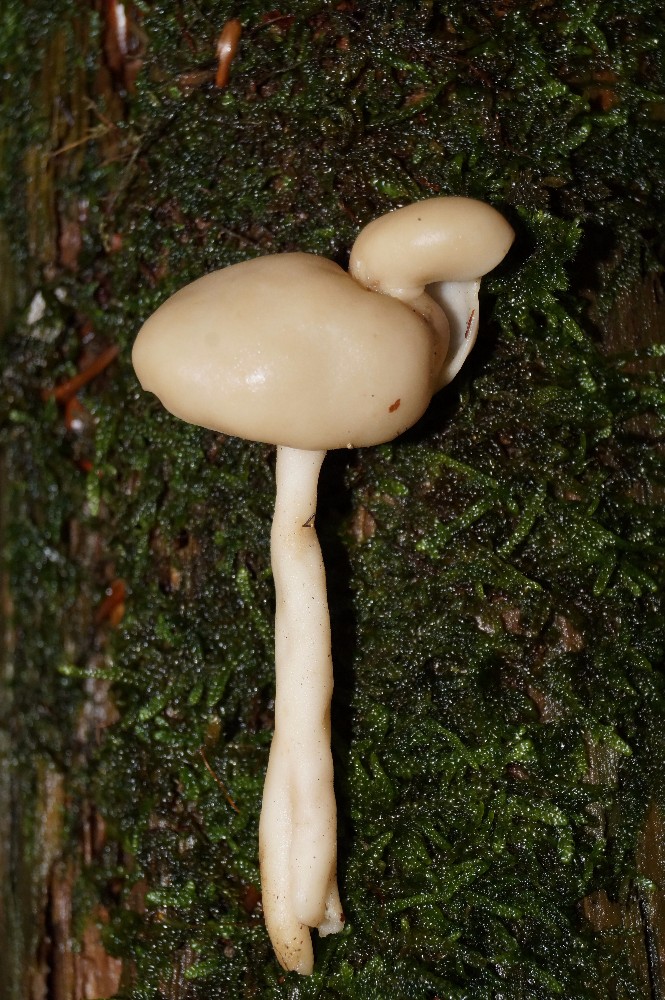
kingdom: Fungi
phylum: Ascomycota
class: Pezizomycetes
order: Pezizales
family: Helvellaceae
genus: Helvella
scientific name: Helvella elastica
